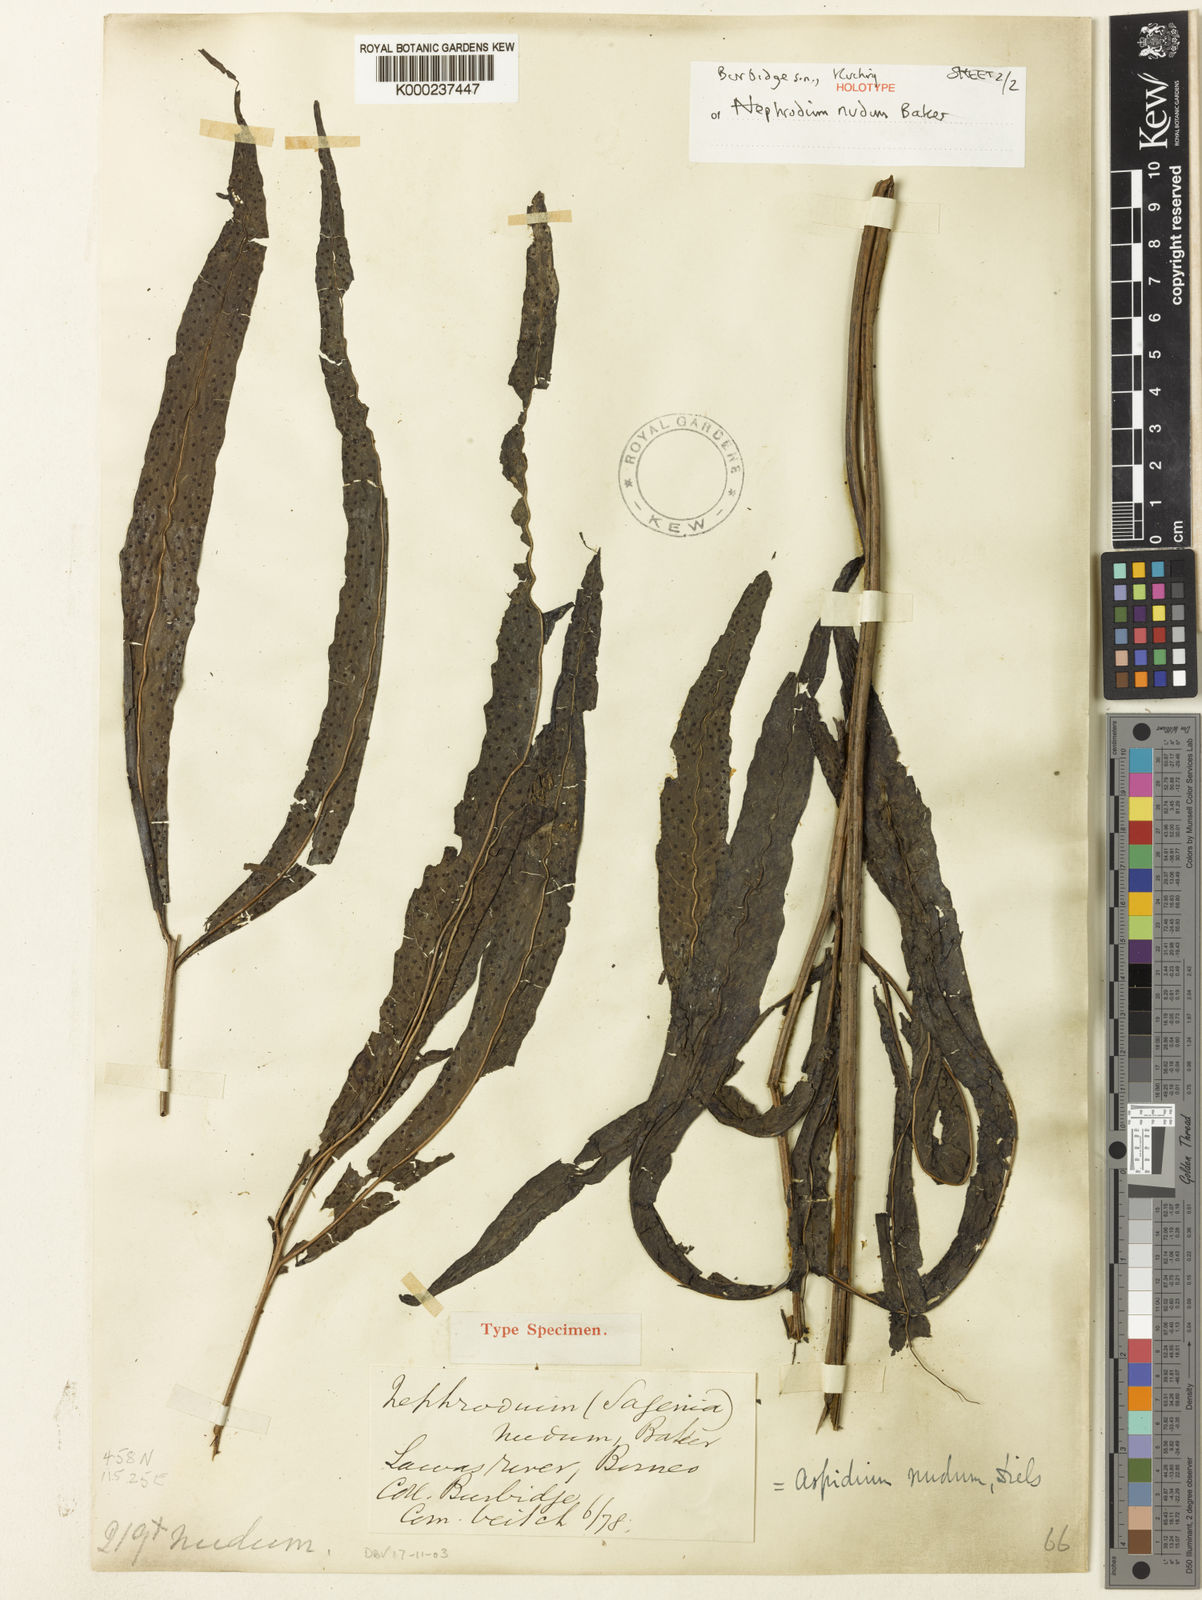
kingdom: Plantae
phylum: Tracheophyta
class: Polypodiopsida
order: Polypodiales
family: Tectariaceae
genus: Tectaria
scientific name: Tectaria semibipinnata
